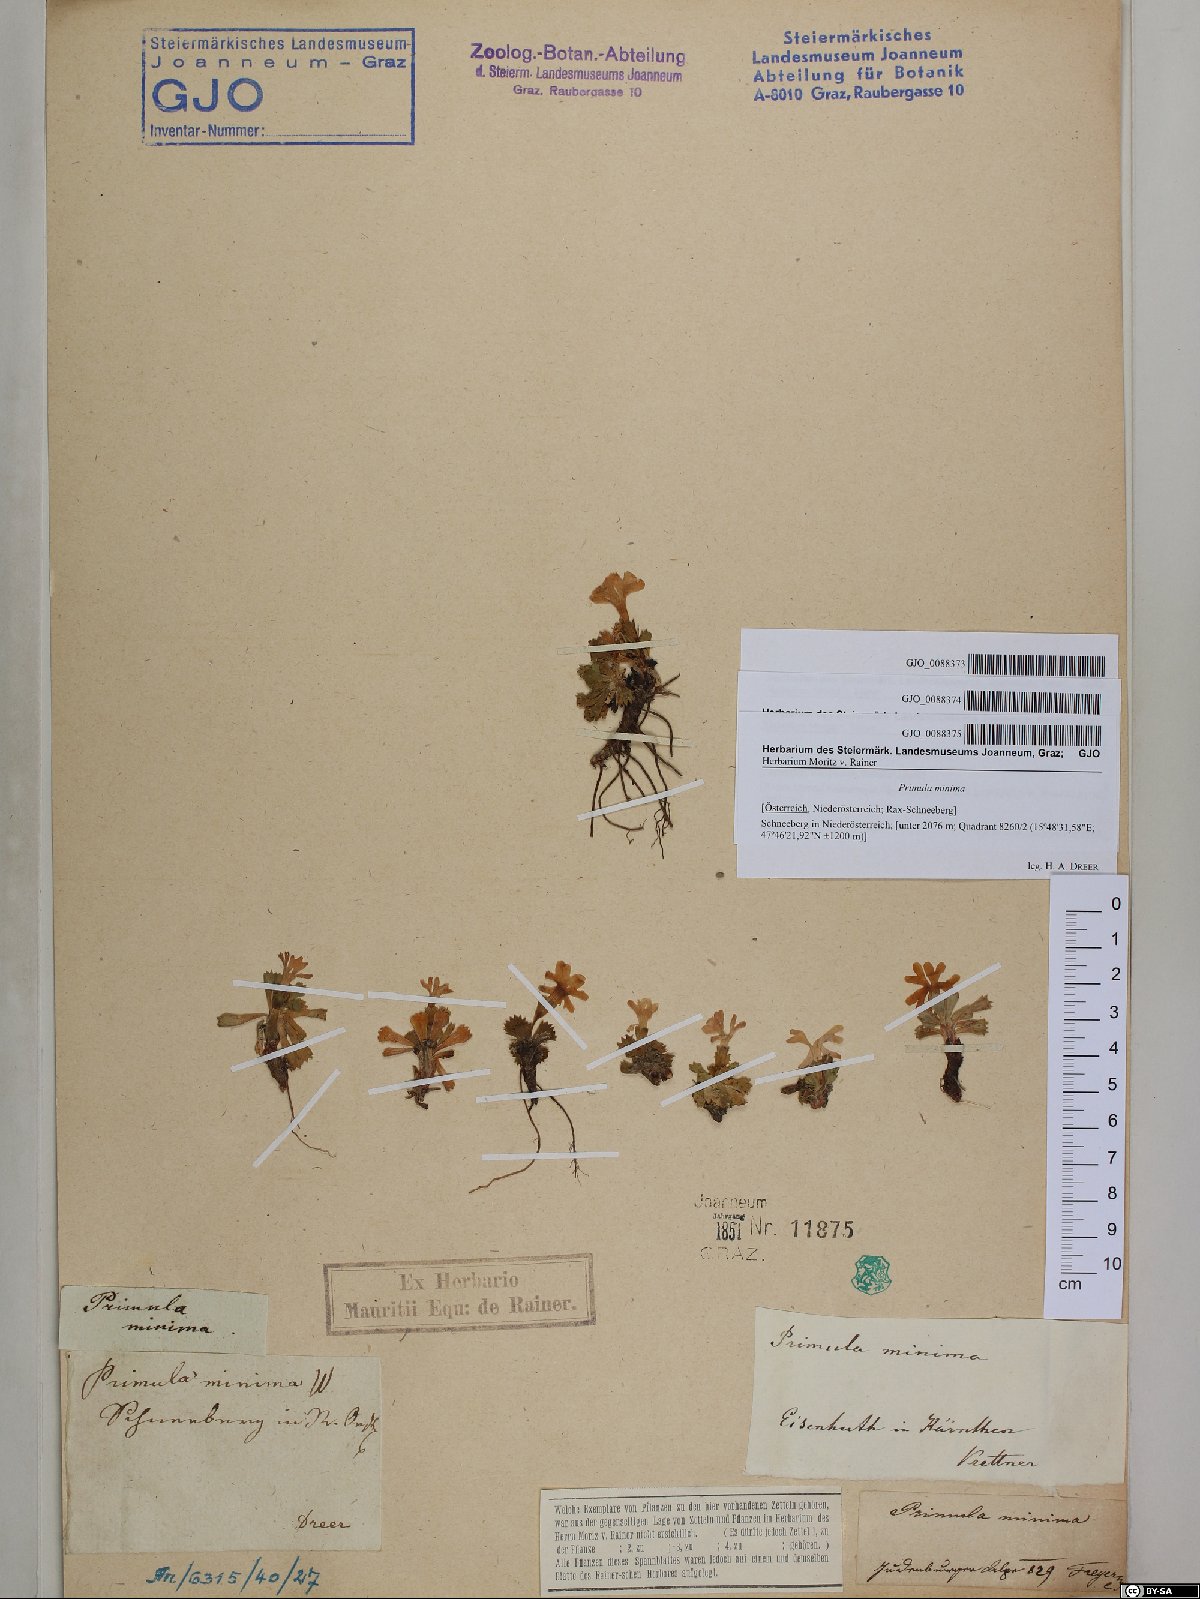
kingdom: Plantae
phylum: Tracheophyta
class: Magnoliopsida
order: Ericales
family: Primulaceae
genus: Primula
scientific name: Primula minima
